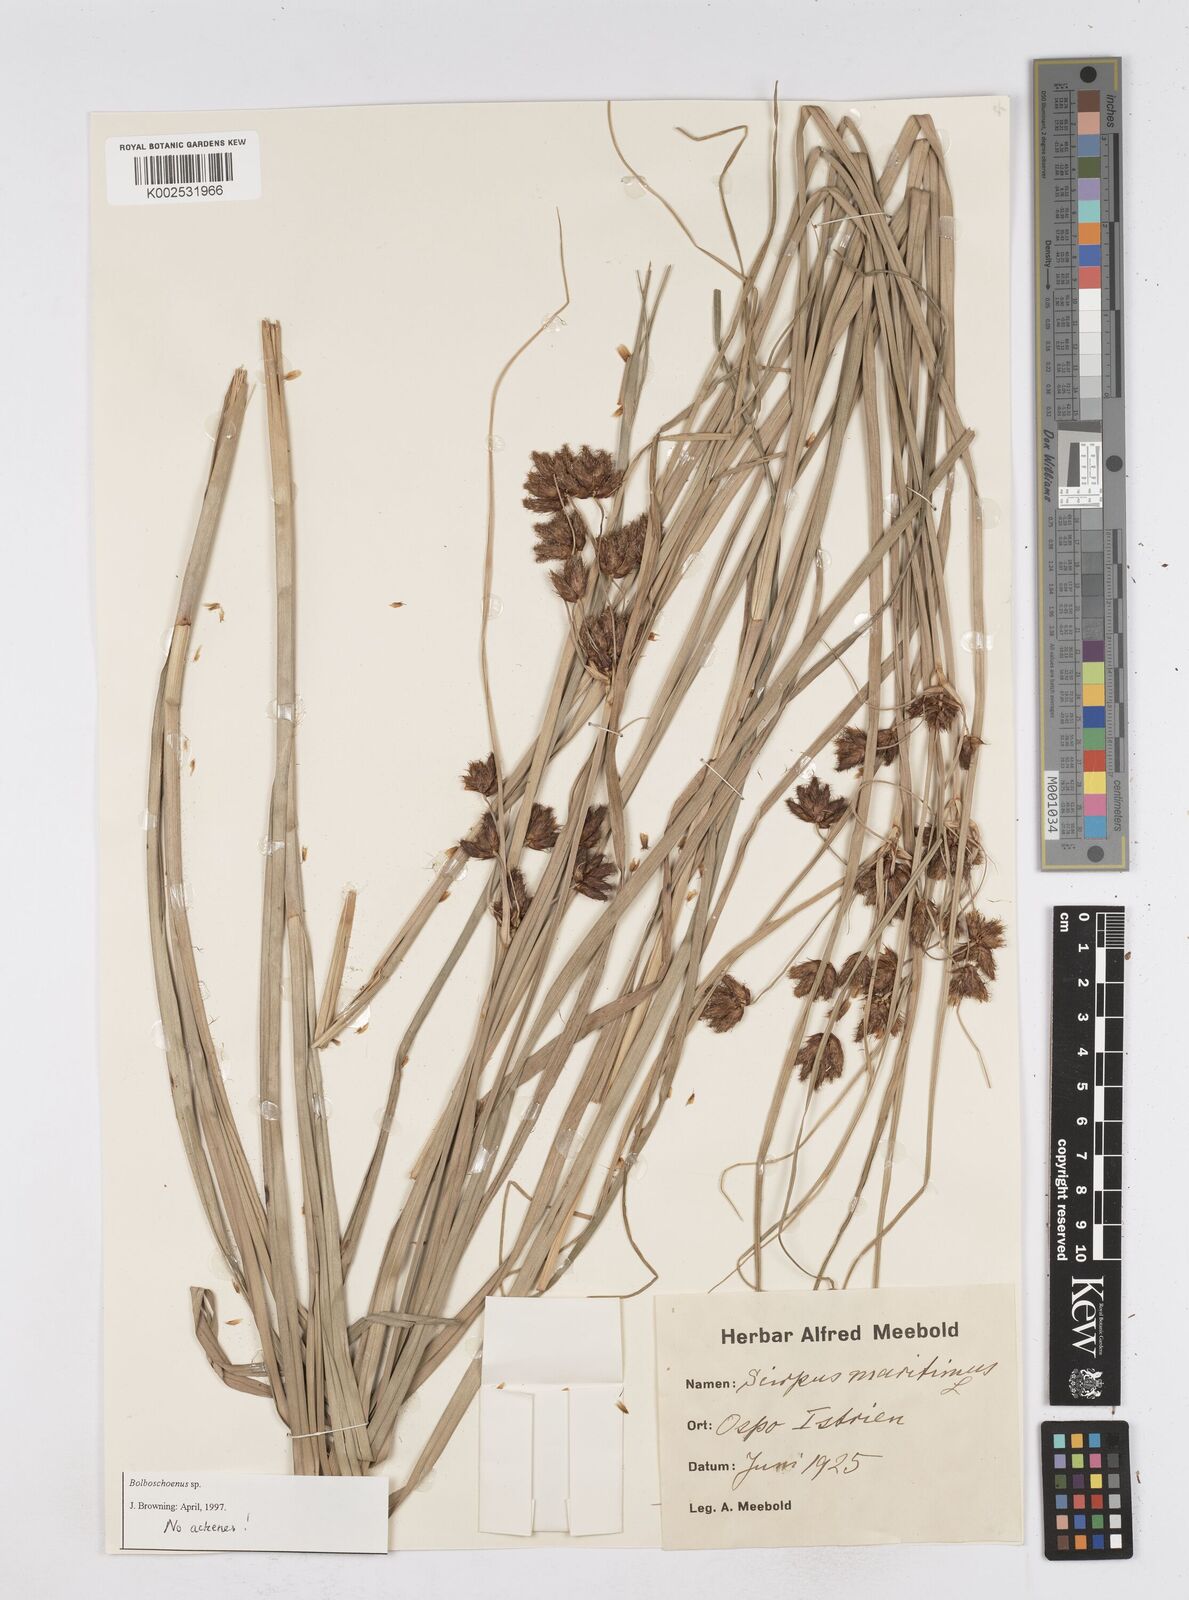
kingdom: Plantae
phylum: Tracheophyta
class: Liliopsida
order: Poales
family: Cyperaceae
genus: Bolboschoenus
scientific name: Bolboschoenus maritimus
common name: Sea club-rush
